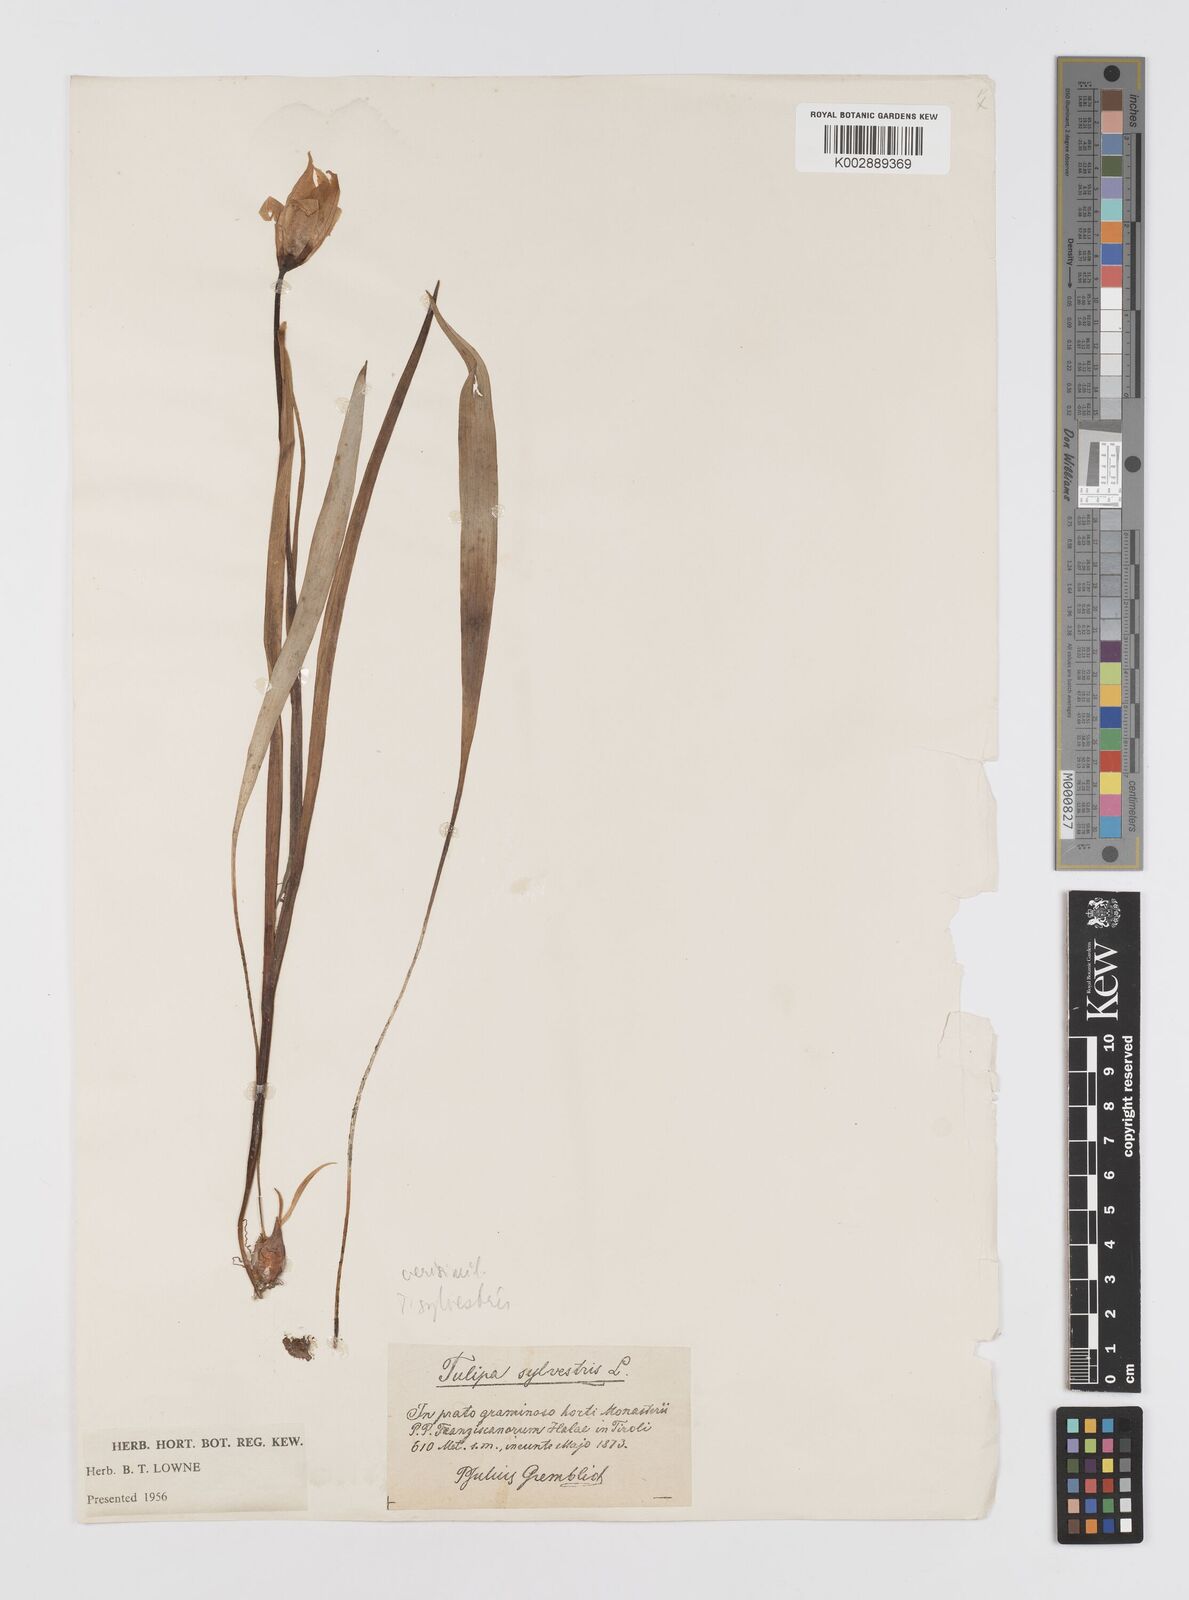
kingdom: Plantae
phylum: Tracheophyta
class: Liliopsida
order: Liliales
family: Liliaceae
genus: Tulipa
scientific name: Tulipa sylvestris
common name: Wild tulip
